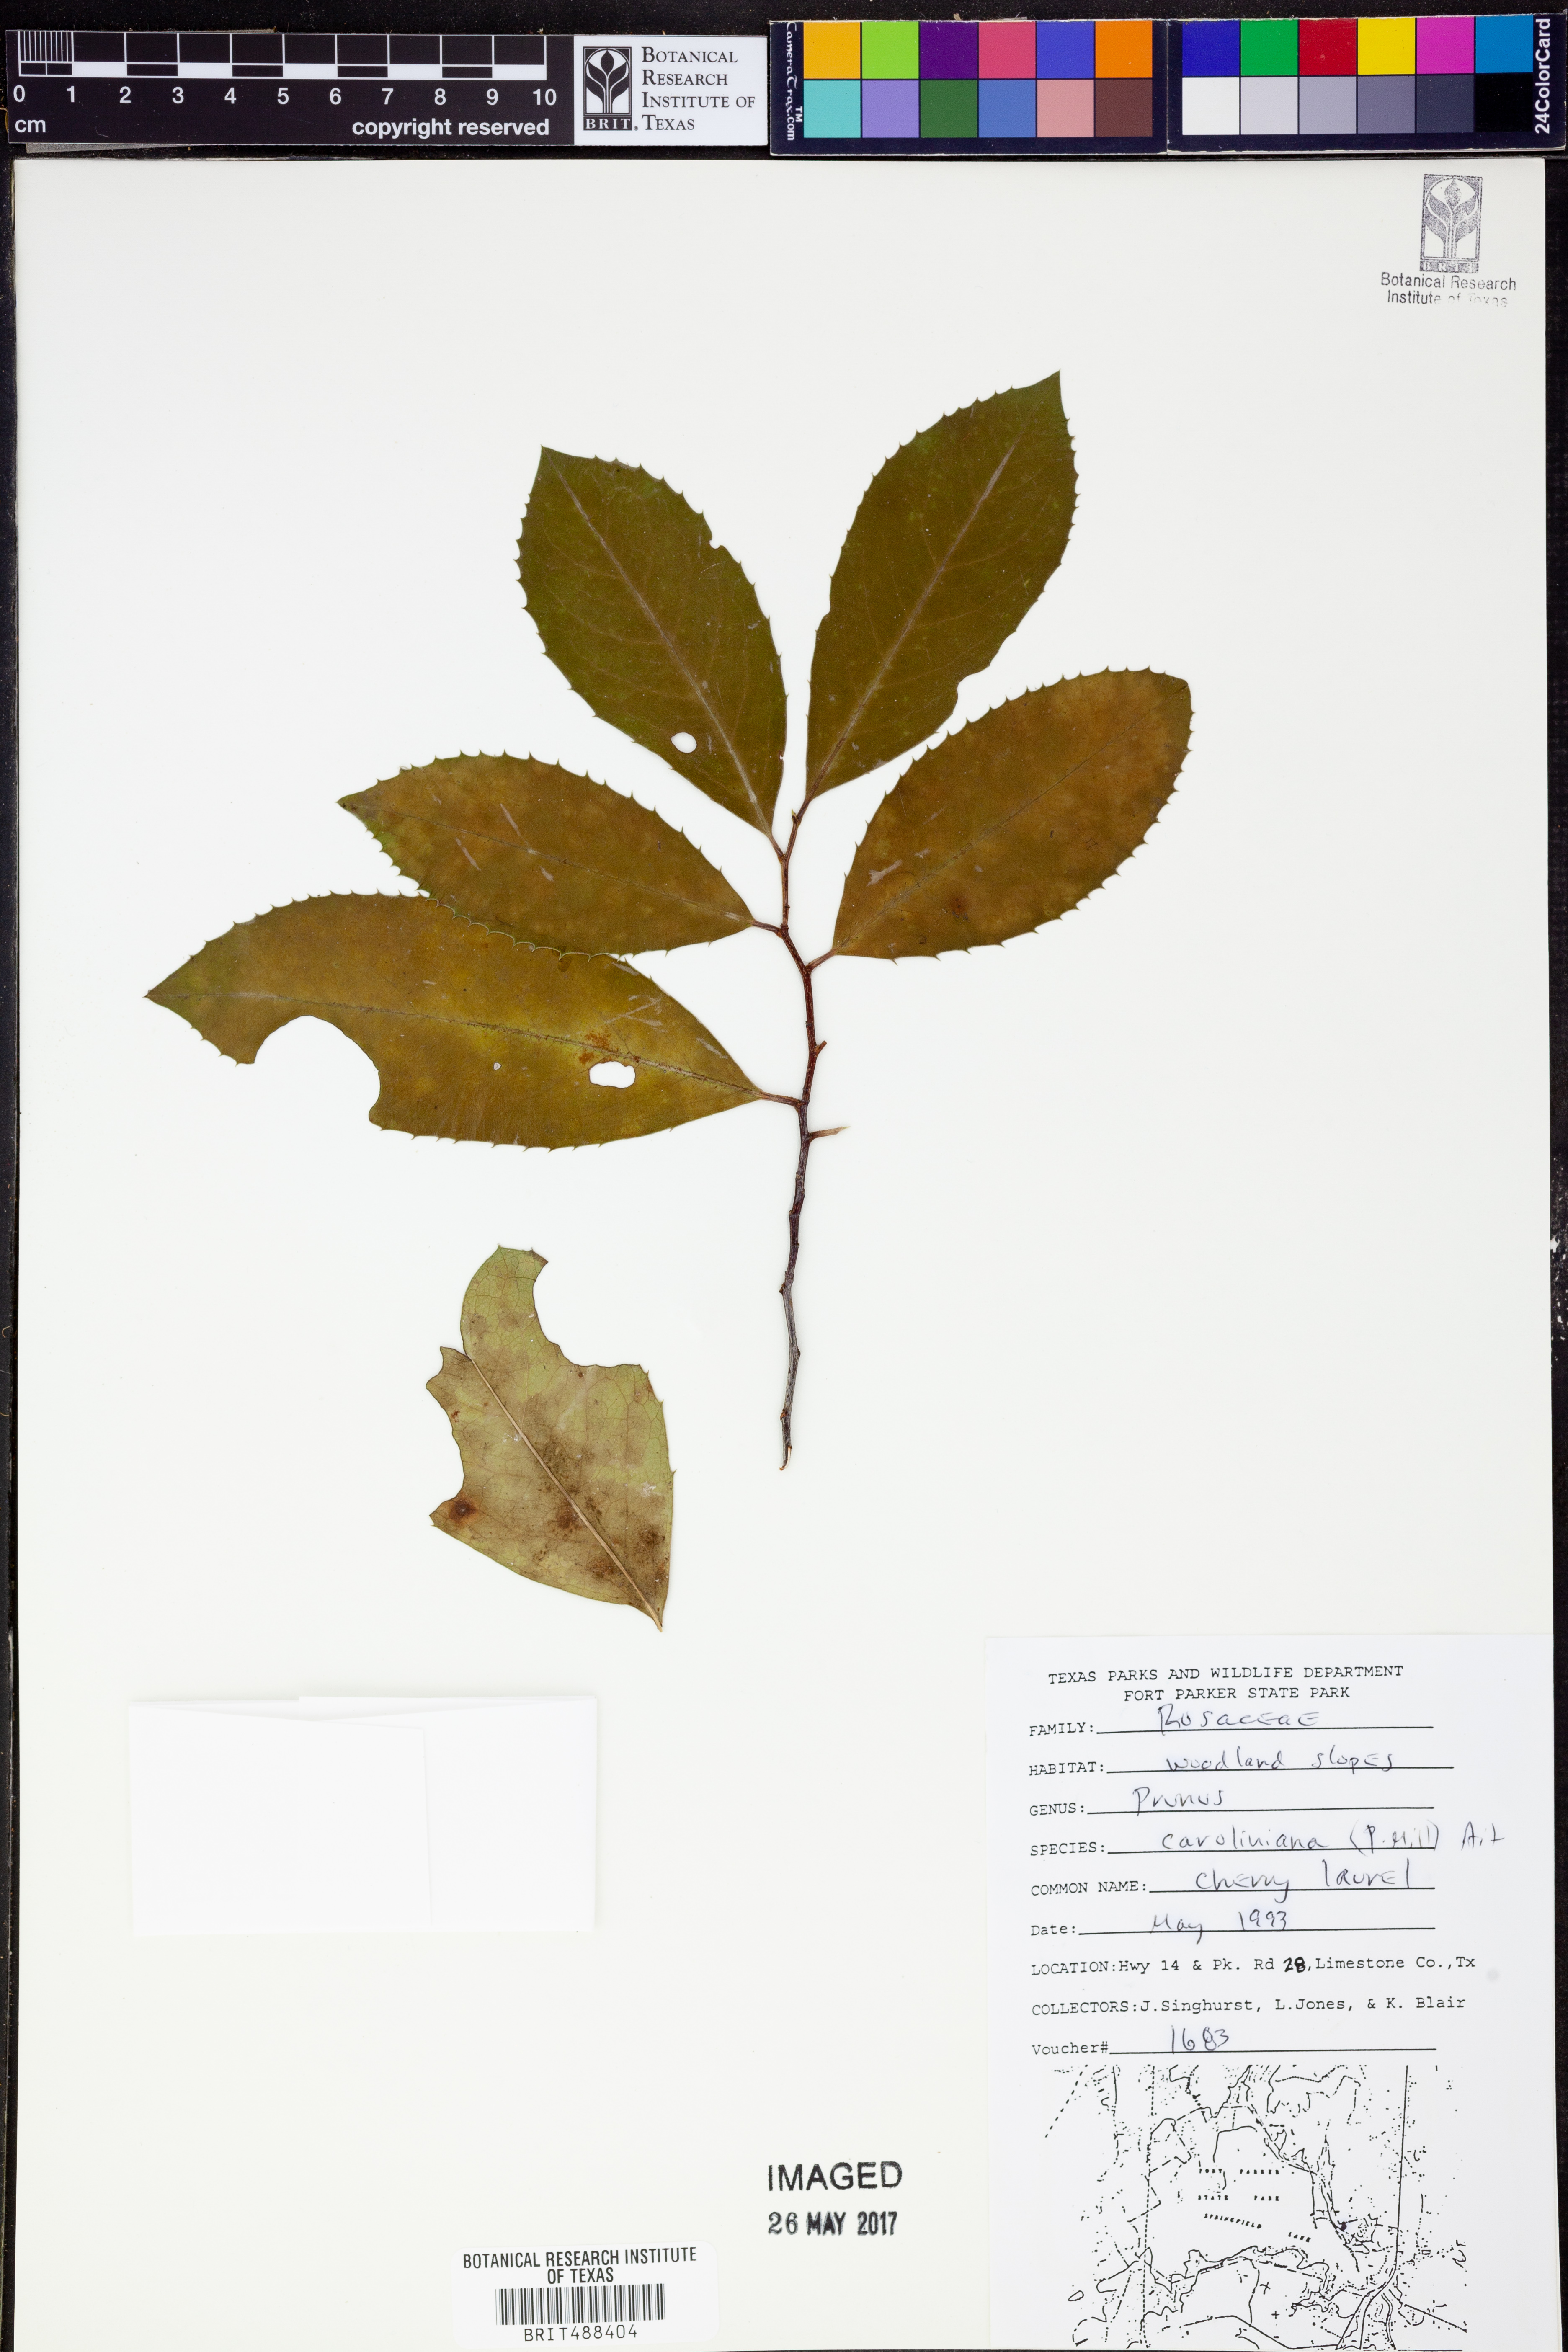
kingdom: Plantae
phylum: Tracheophyta
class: Magnoliopsida
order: Rosales
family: Rosaceae
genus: Prunus
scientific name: Prunus caroliniana
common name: Carolina laurel cherry
